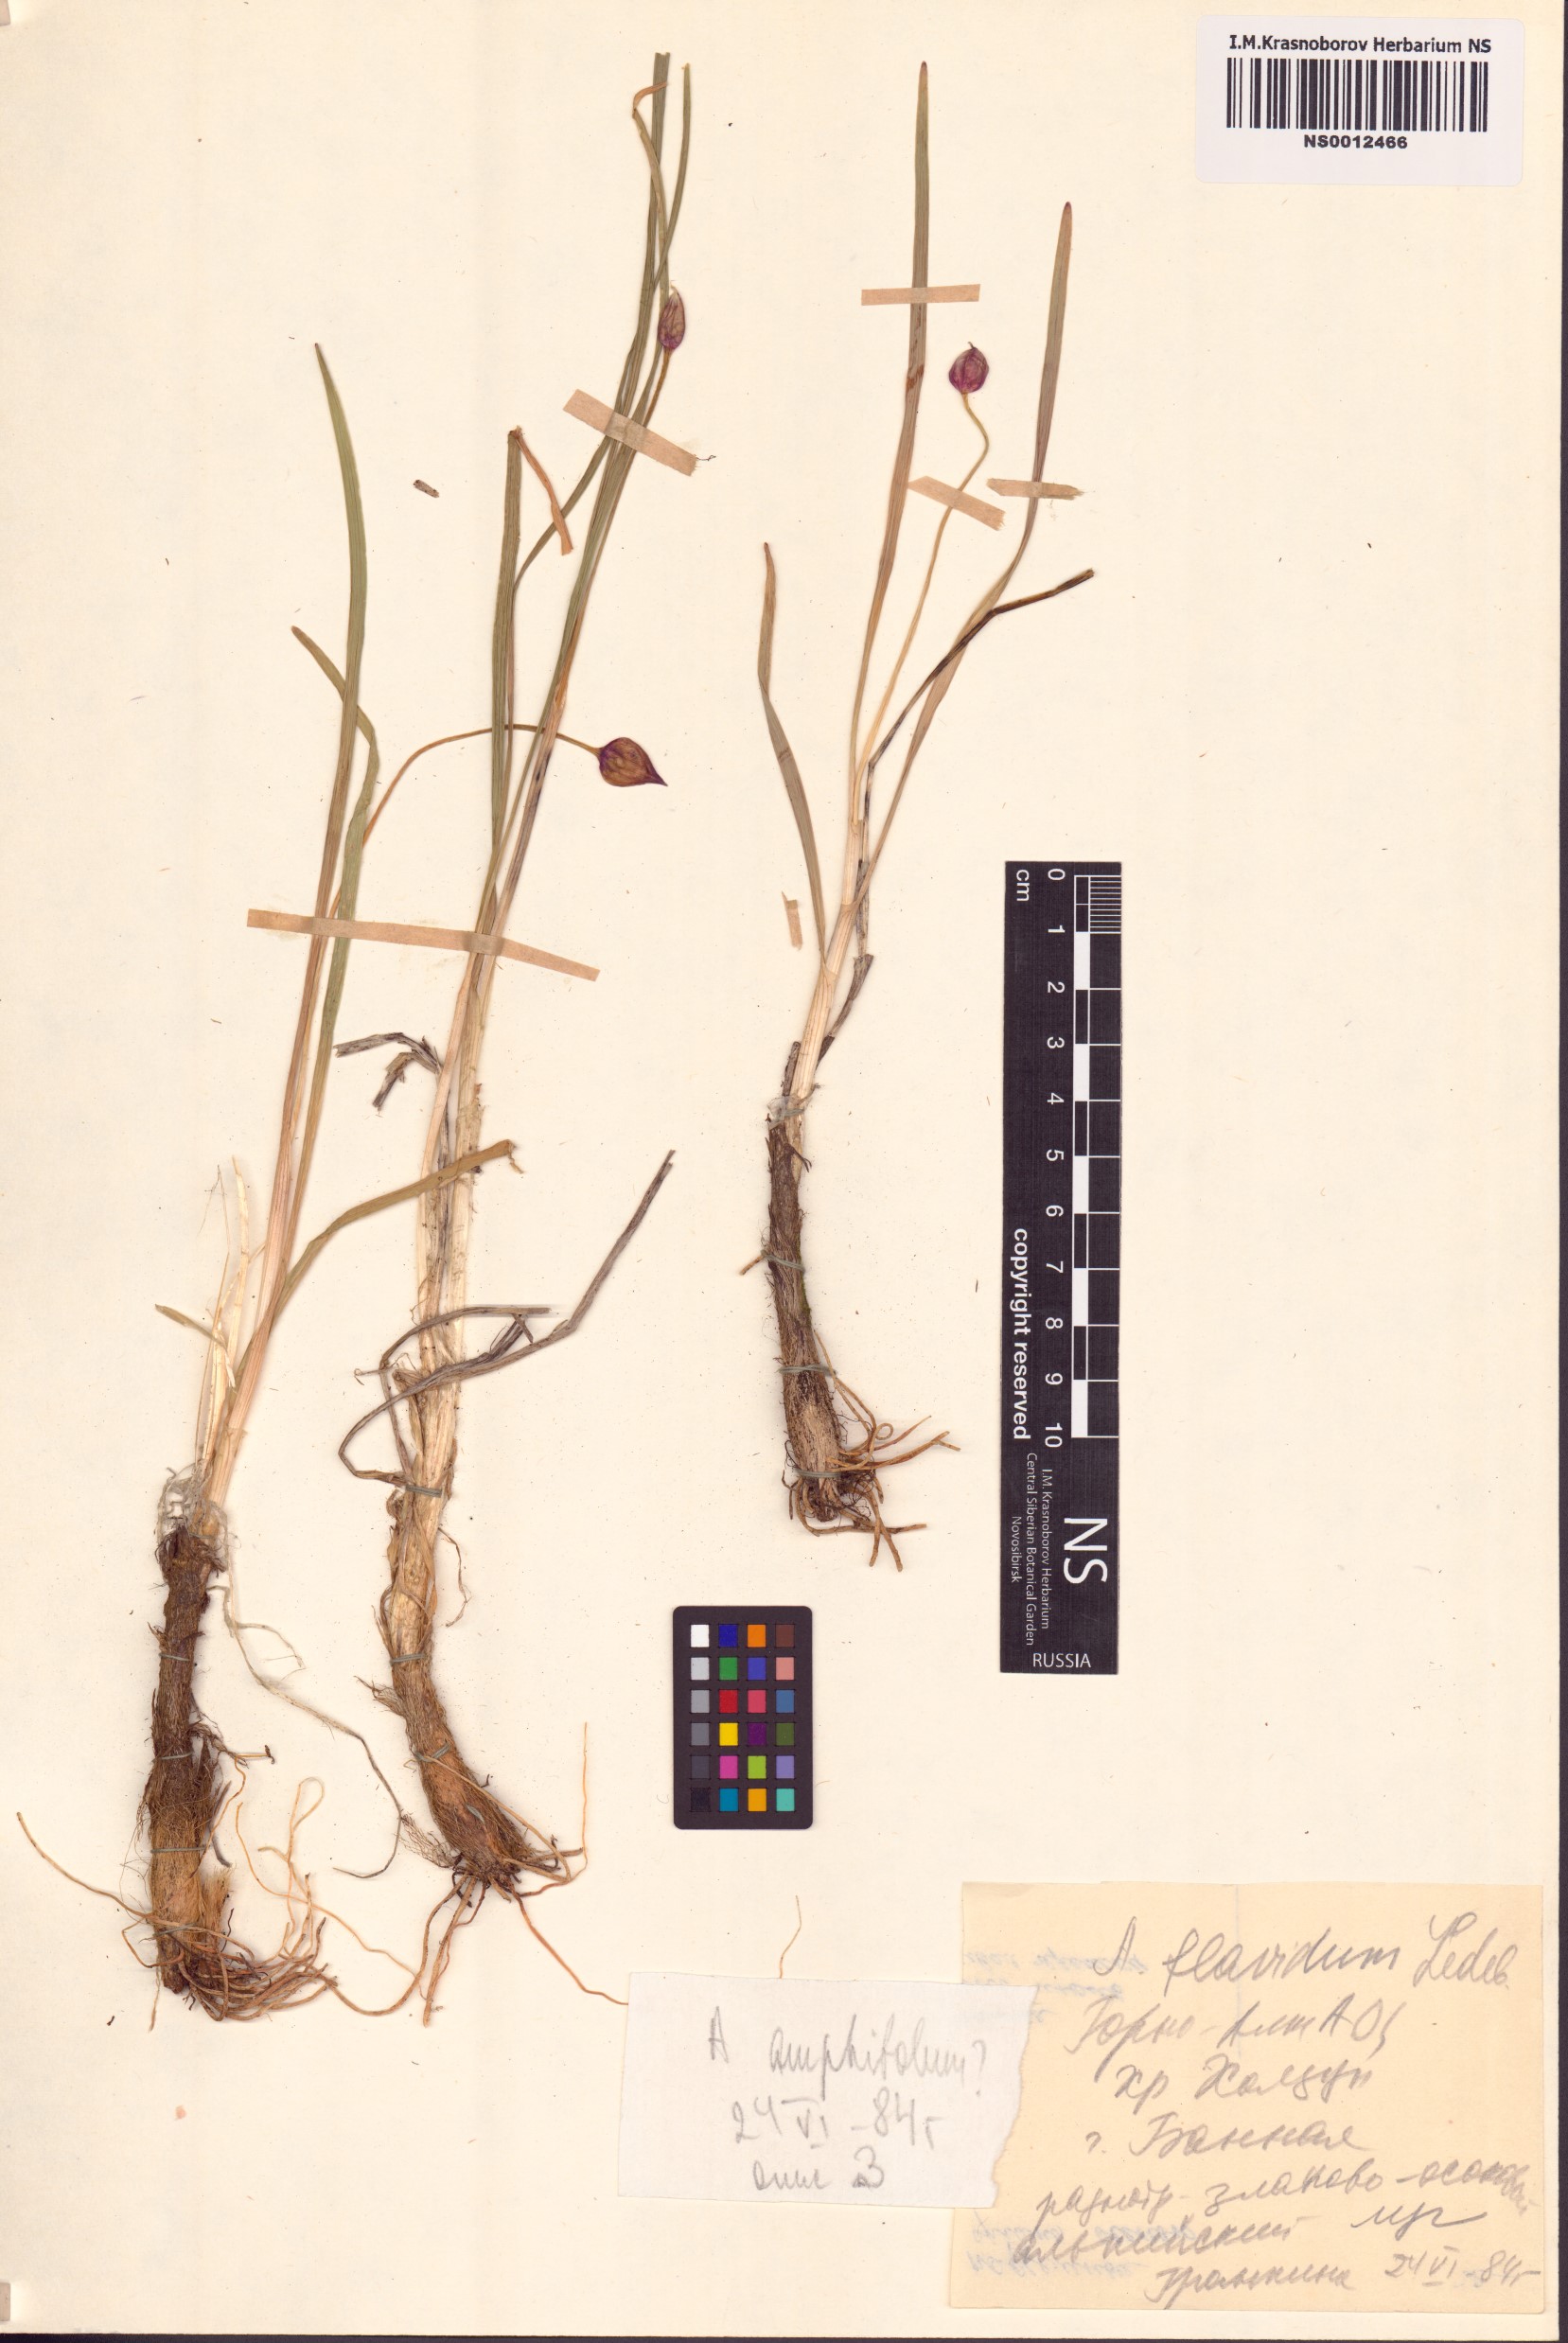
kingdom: Plantae
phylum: Tracheophyta
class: Liliopsida
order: Asparagales
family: Amaryllidaceae
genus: Allium
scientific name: Allium flavidum
